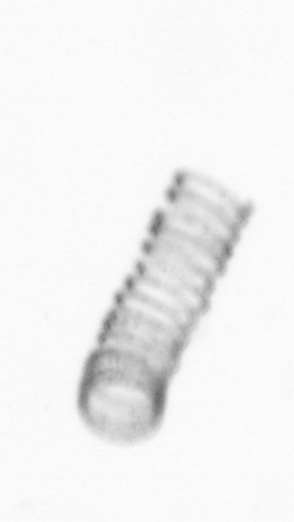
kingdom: Chromista
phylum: Ochrophyta
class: Bacillariophyceae
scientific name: Bacillariophyceae
